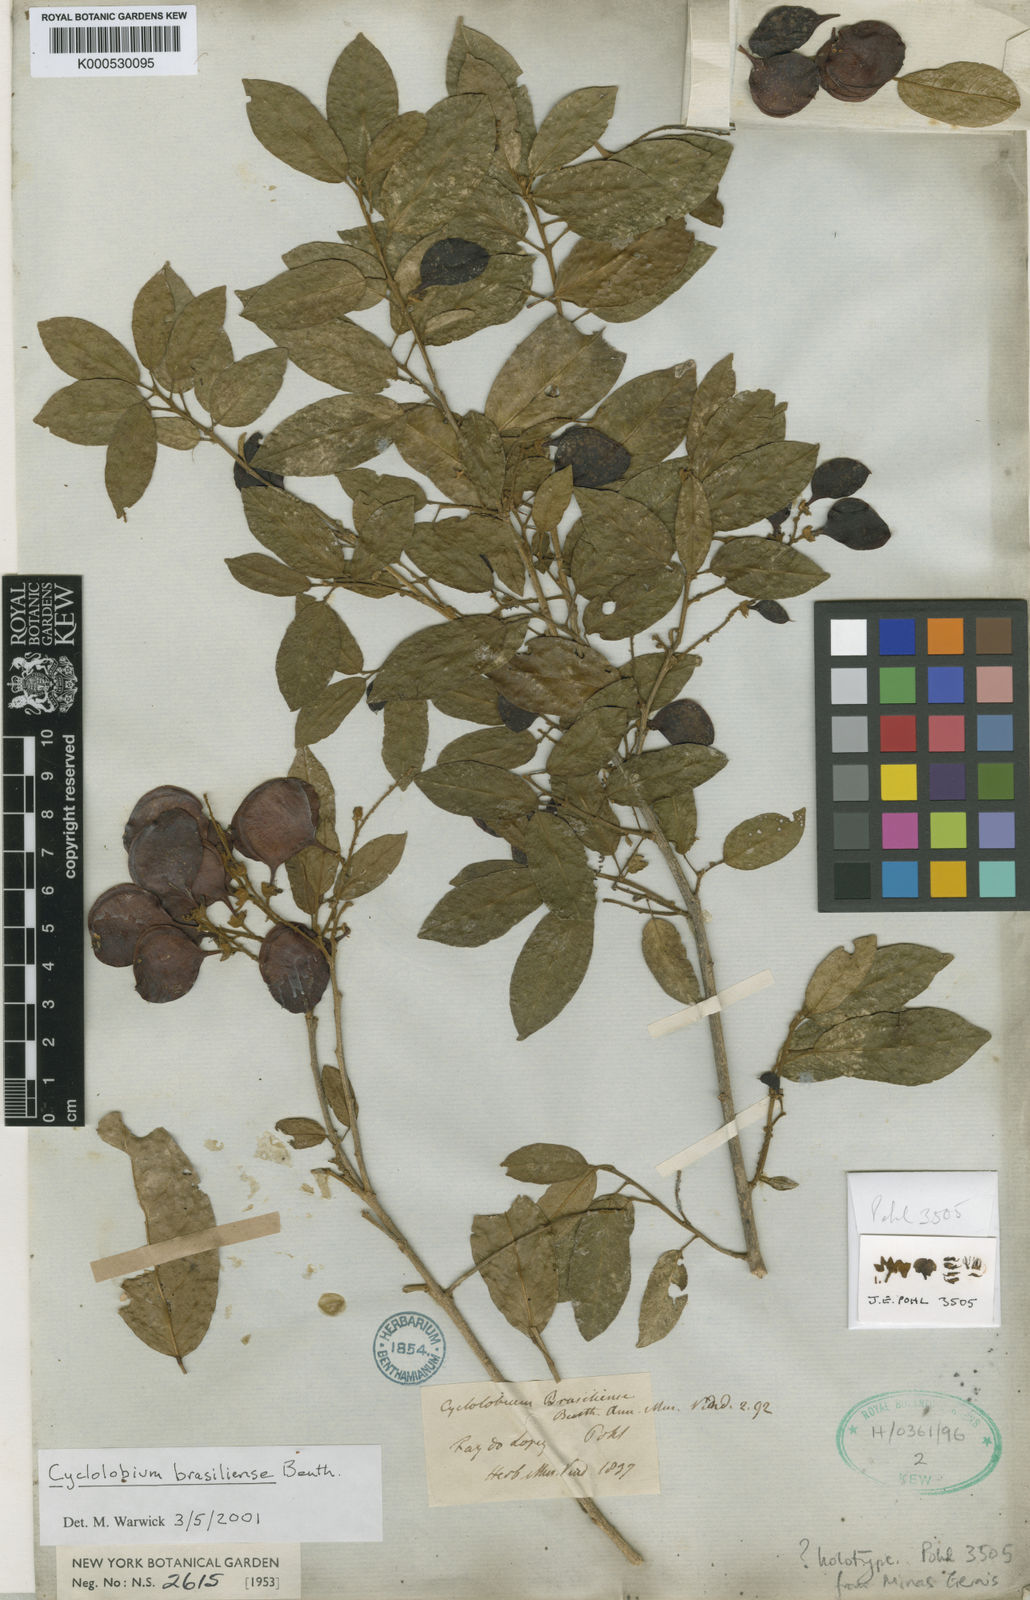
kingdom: Plantae
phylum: Tracheophyta
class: Magnoliopsida
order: Fabales
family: Fabaceae
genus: Cyclolobium
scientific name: Cyclolobium brasiliense
